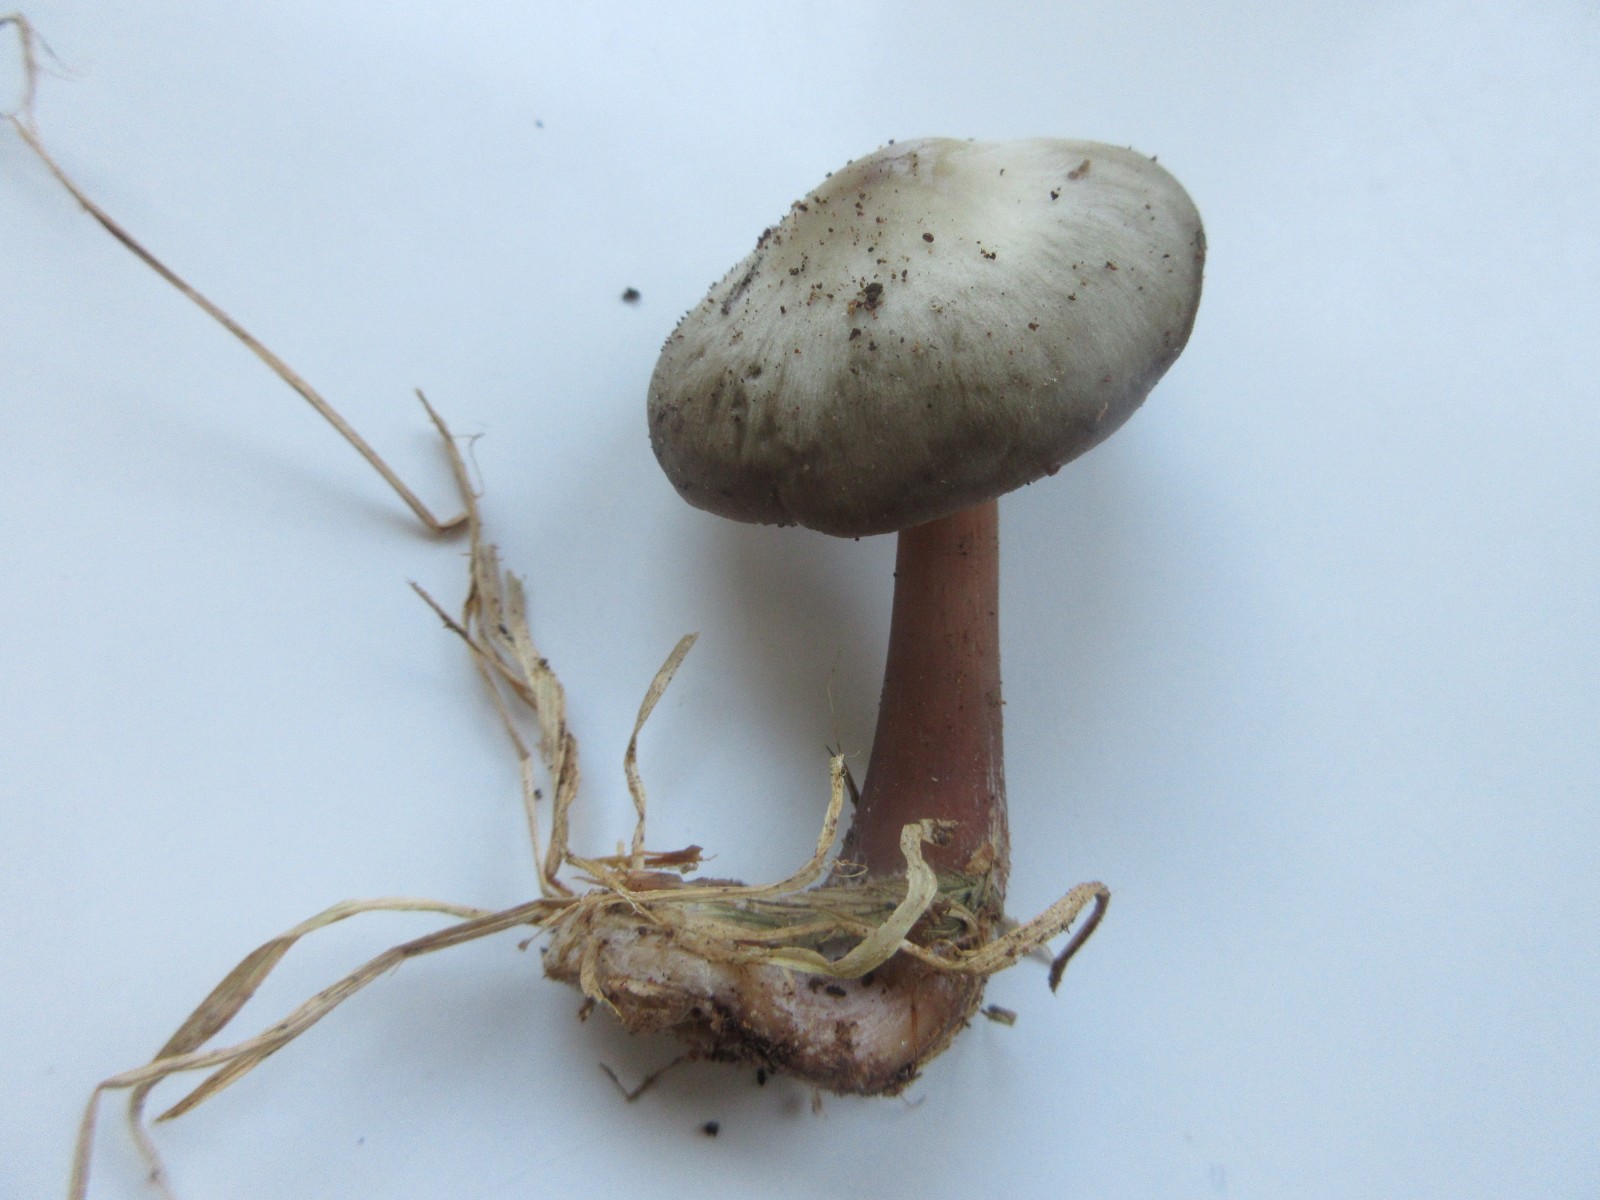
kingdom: Fungi
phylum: Basidiomycota
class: Agaricomycetes
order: Agaricales
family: Omphalotaceae
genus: Rhodocollybia
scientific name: Rhodocollybia asema
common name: horngrå fladhat
